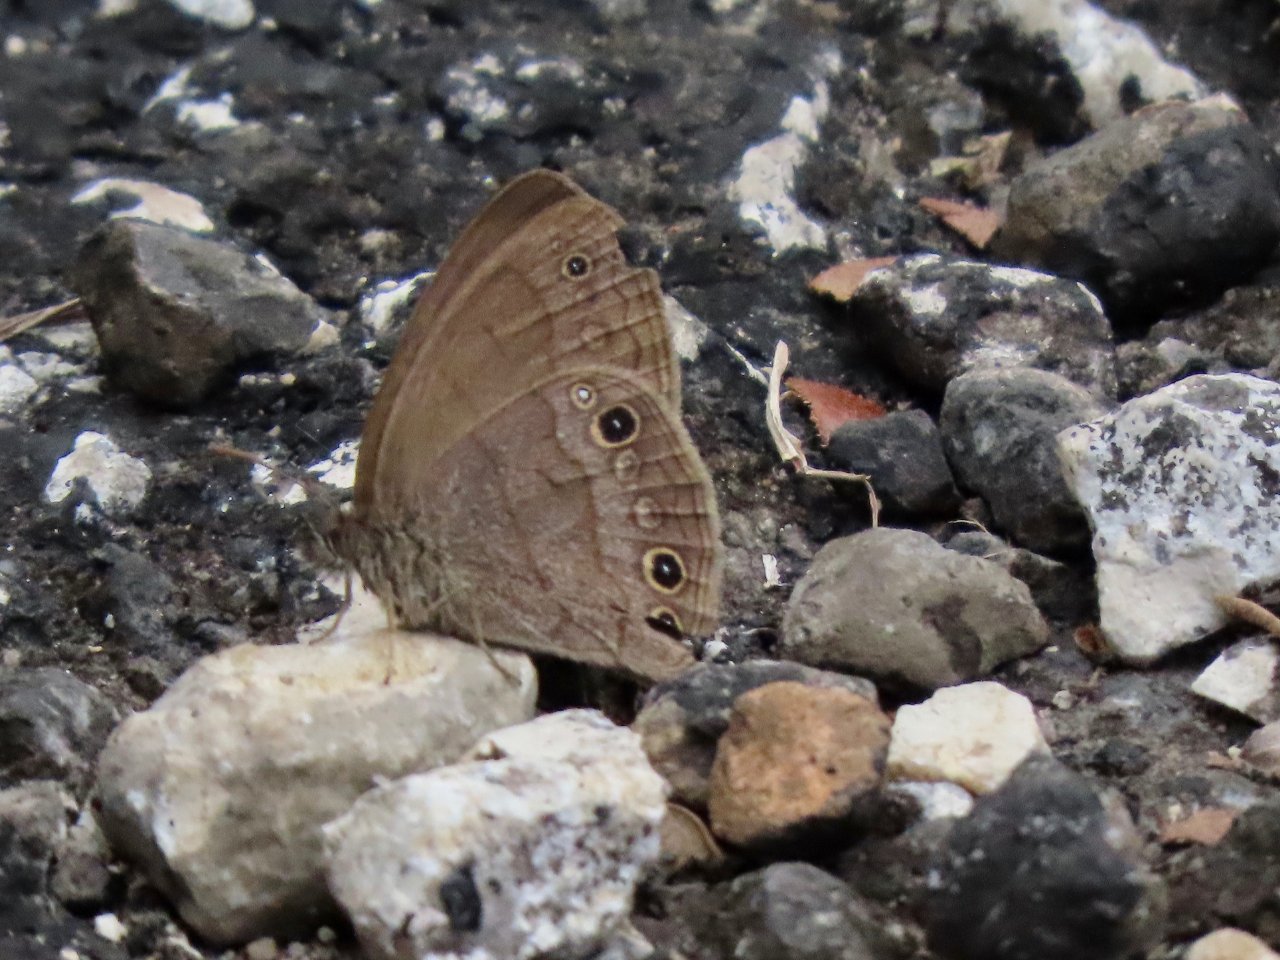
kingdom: Animalia
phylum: Arthropoda
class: Insecta
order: Lepidoptera
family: Nymphalidae
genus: Hermeuptychia
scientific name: Hermeuptychia hermes
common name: Carolina Satyr
